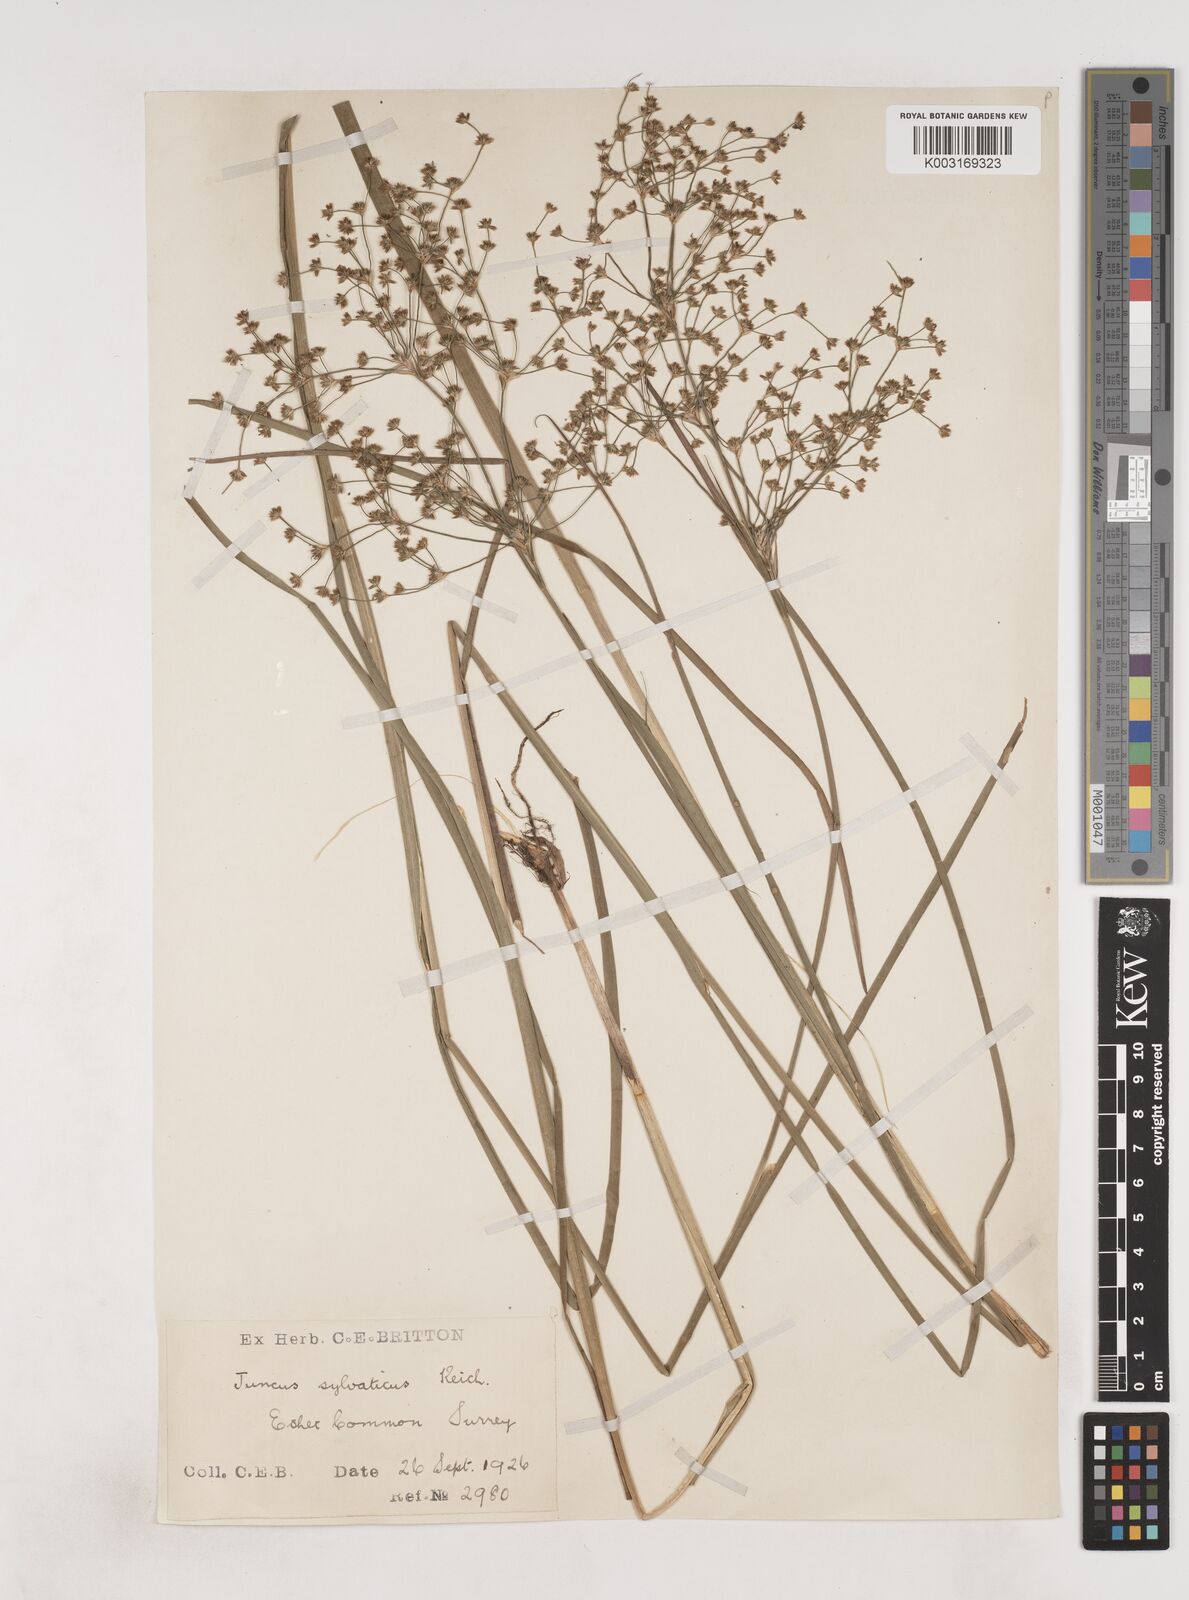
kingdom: Plantae
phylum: Tracheophyta
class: Liliopsida
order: Poales
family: Juncaceae
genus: Juncus
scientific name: Juncus acutiflorus
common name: Sharp-flowered rush
